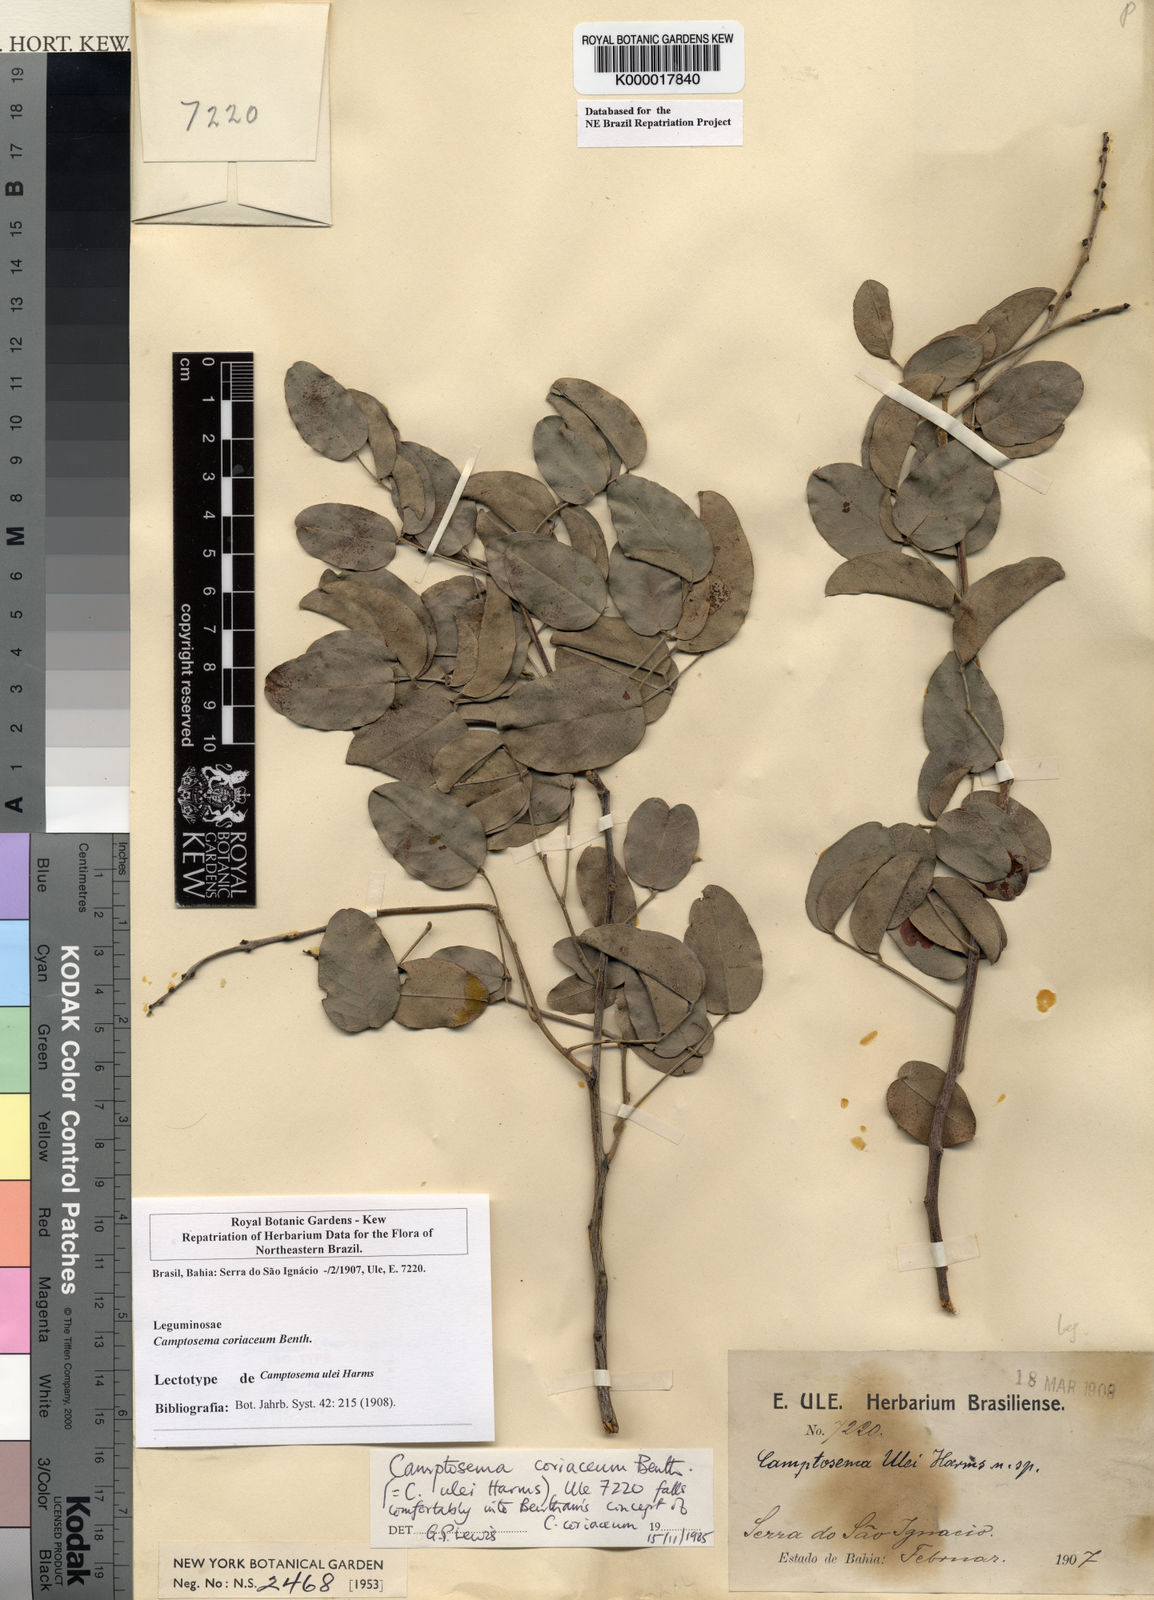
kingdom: Plantae
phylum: Tracheophyta
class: Magnoliopsida
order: Fabales
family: Fabaceae
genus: Camptosema
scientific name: Camptosema coriaceum
